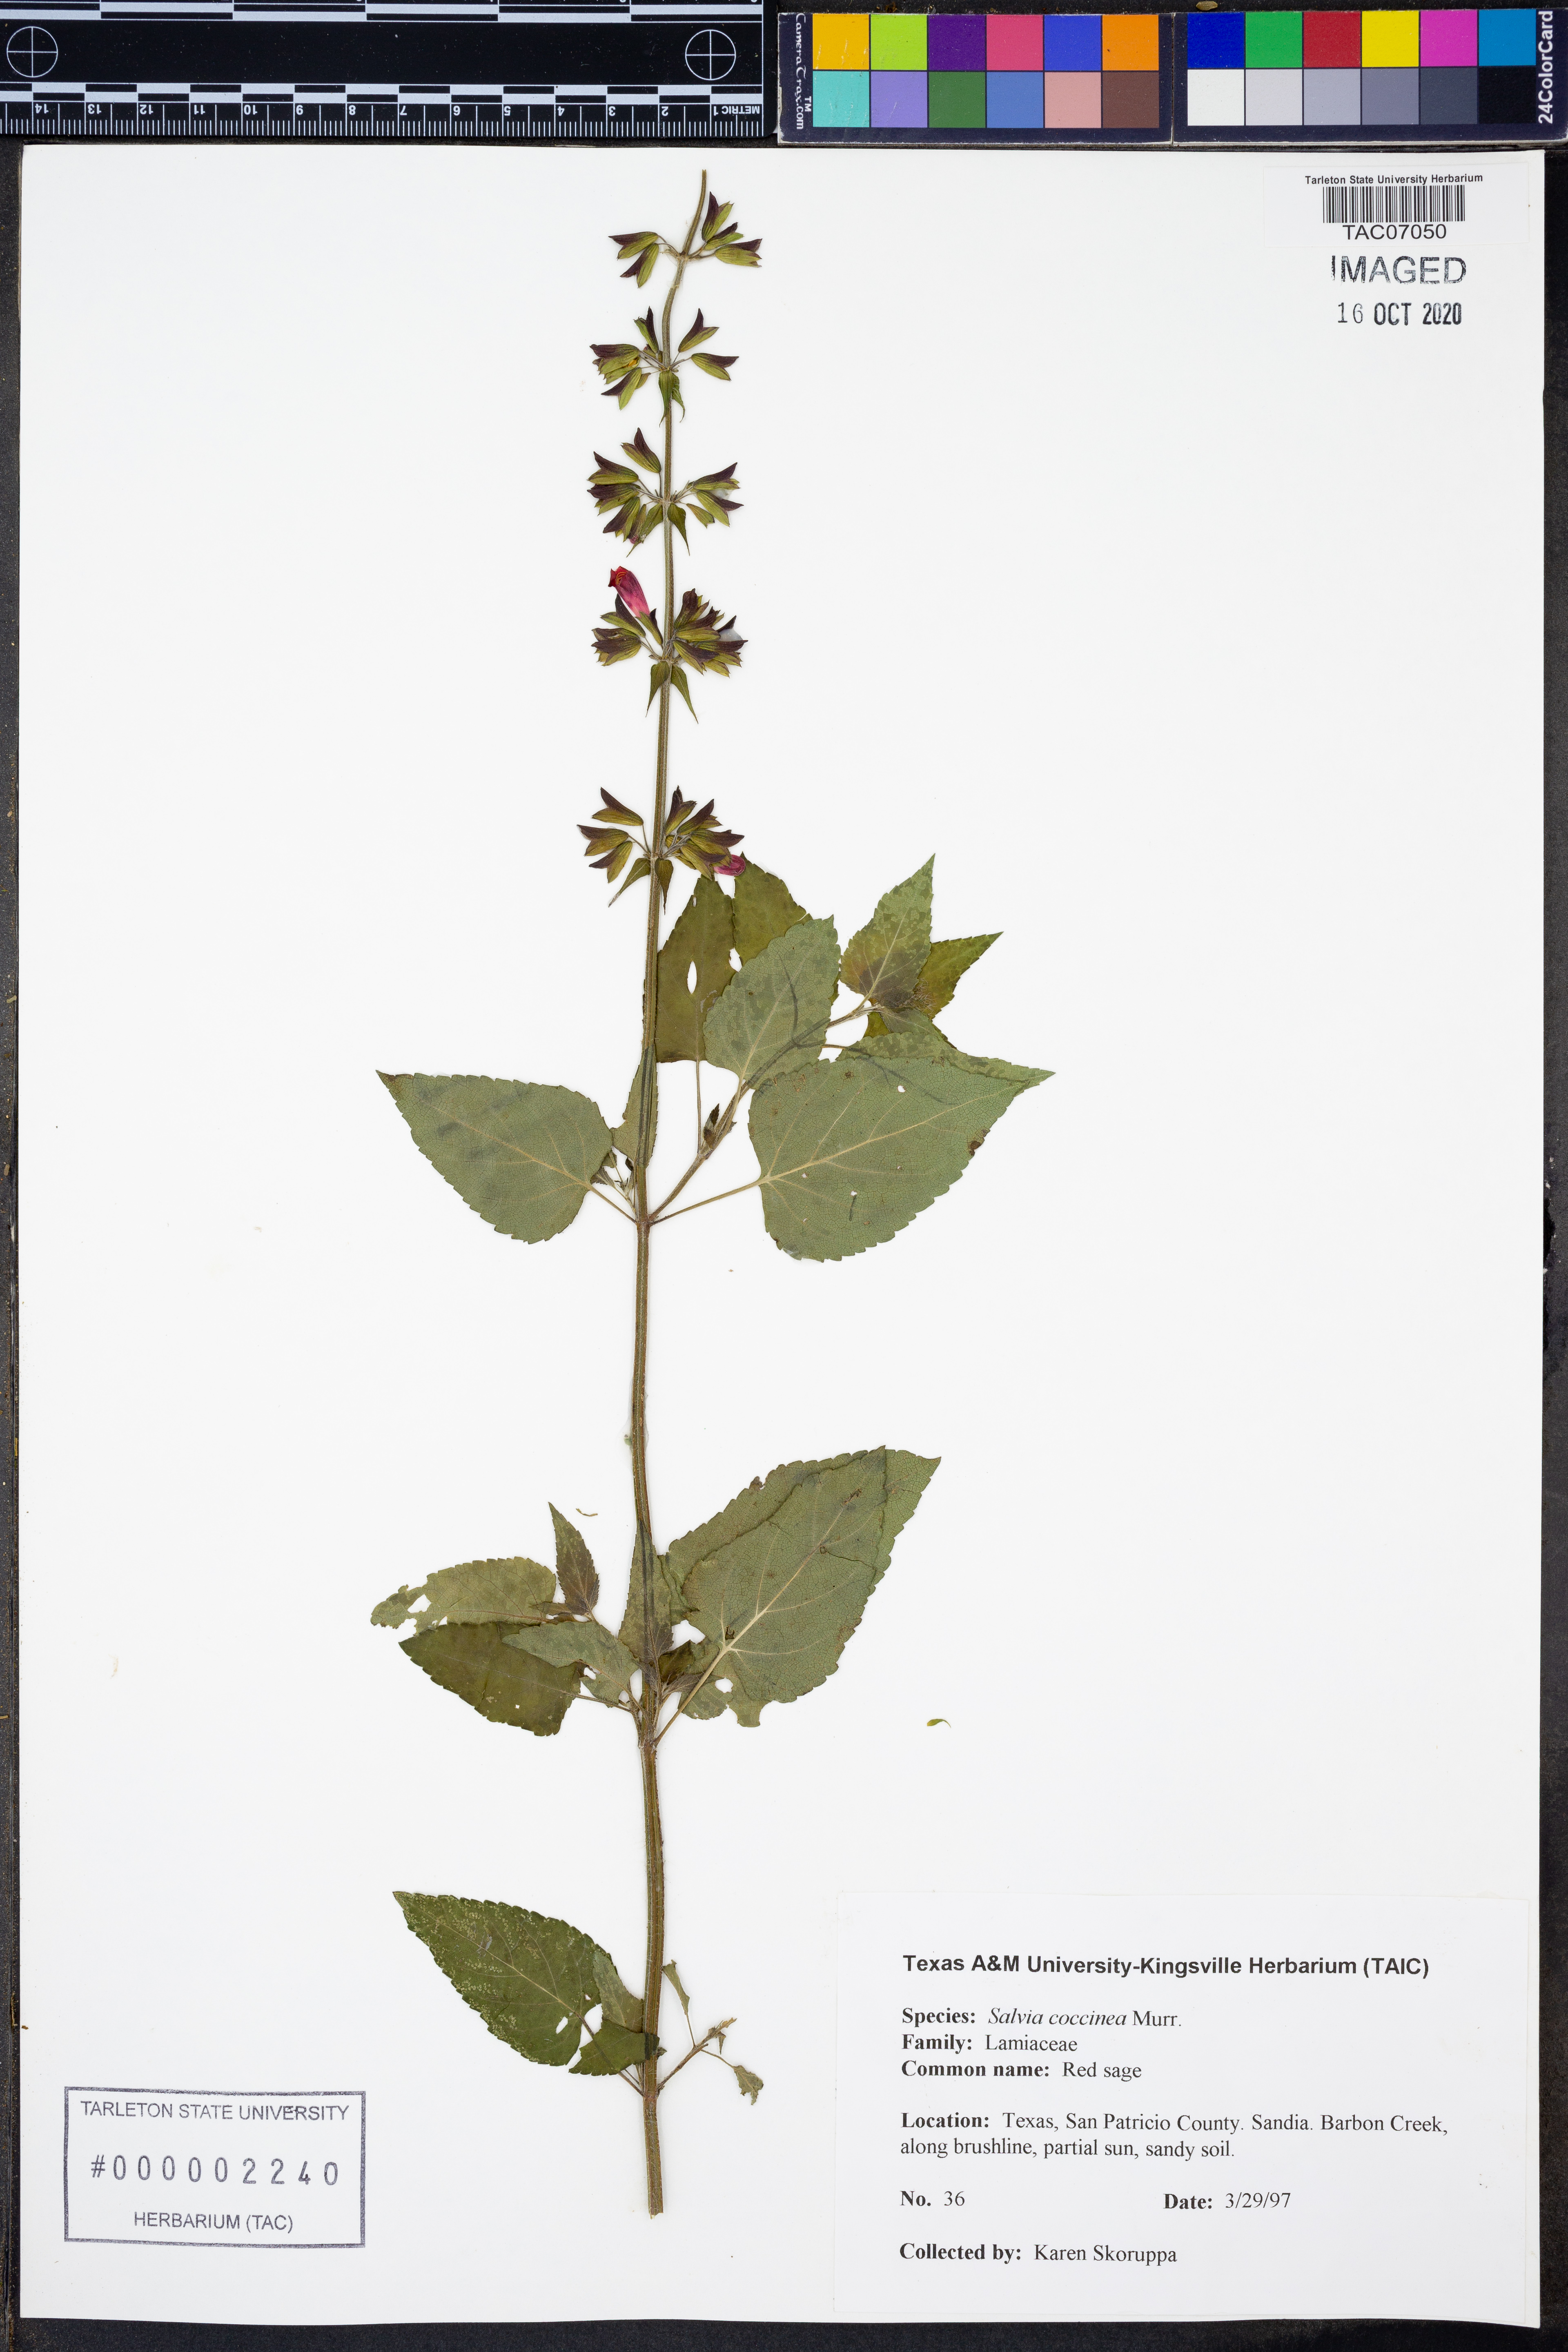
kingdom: Plantae
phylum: Tracheophyta
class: Magnoliopsida
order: Lamiales
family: Lamiaceae
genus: Salvia
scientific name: Salvia coccinea
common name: Blood sage
